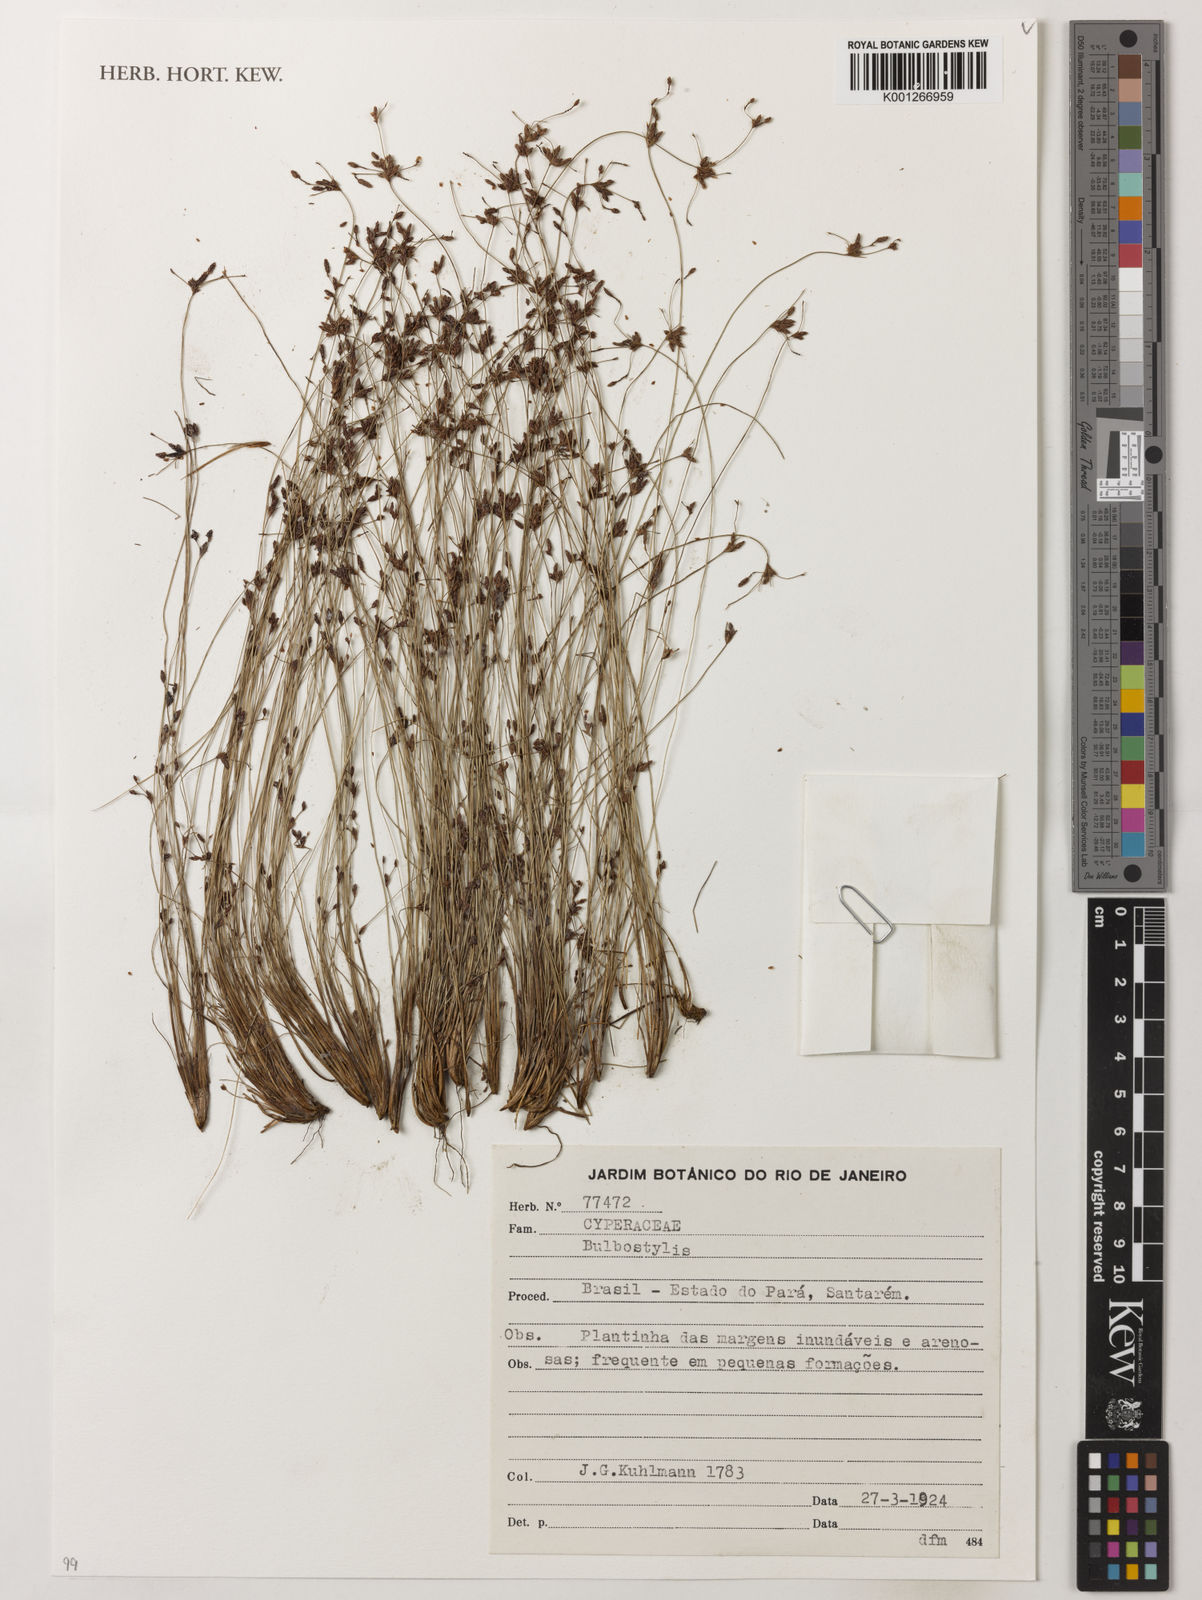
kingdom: Plantae
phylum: Tracheophyta
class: Liliopsida
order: Poales
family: Cyperaceae
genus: Bulbostylis
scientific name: Bulbostylis
